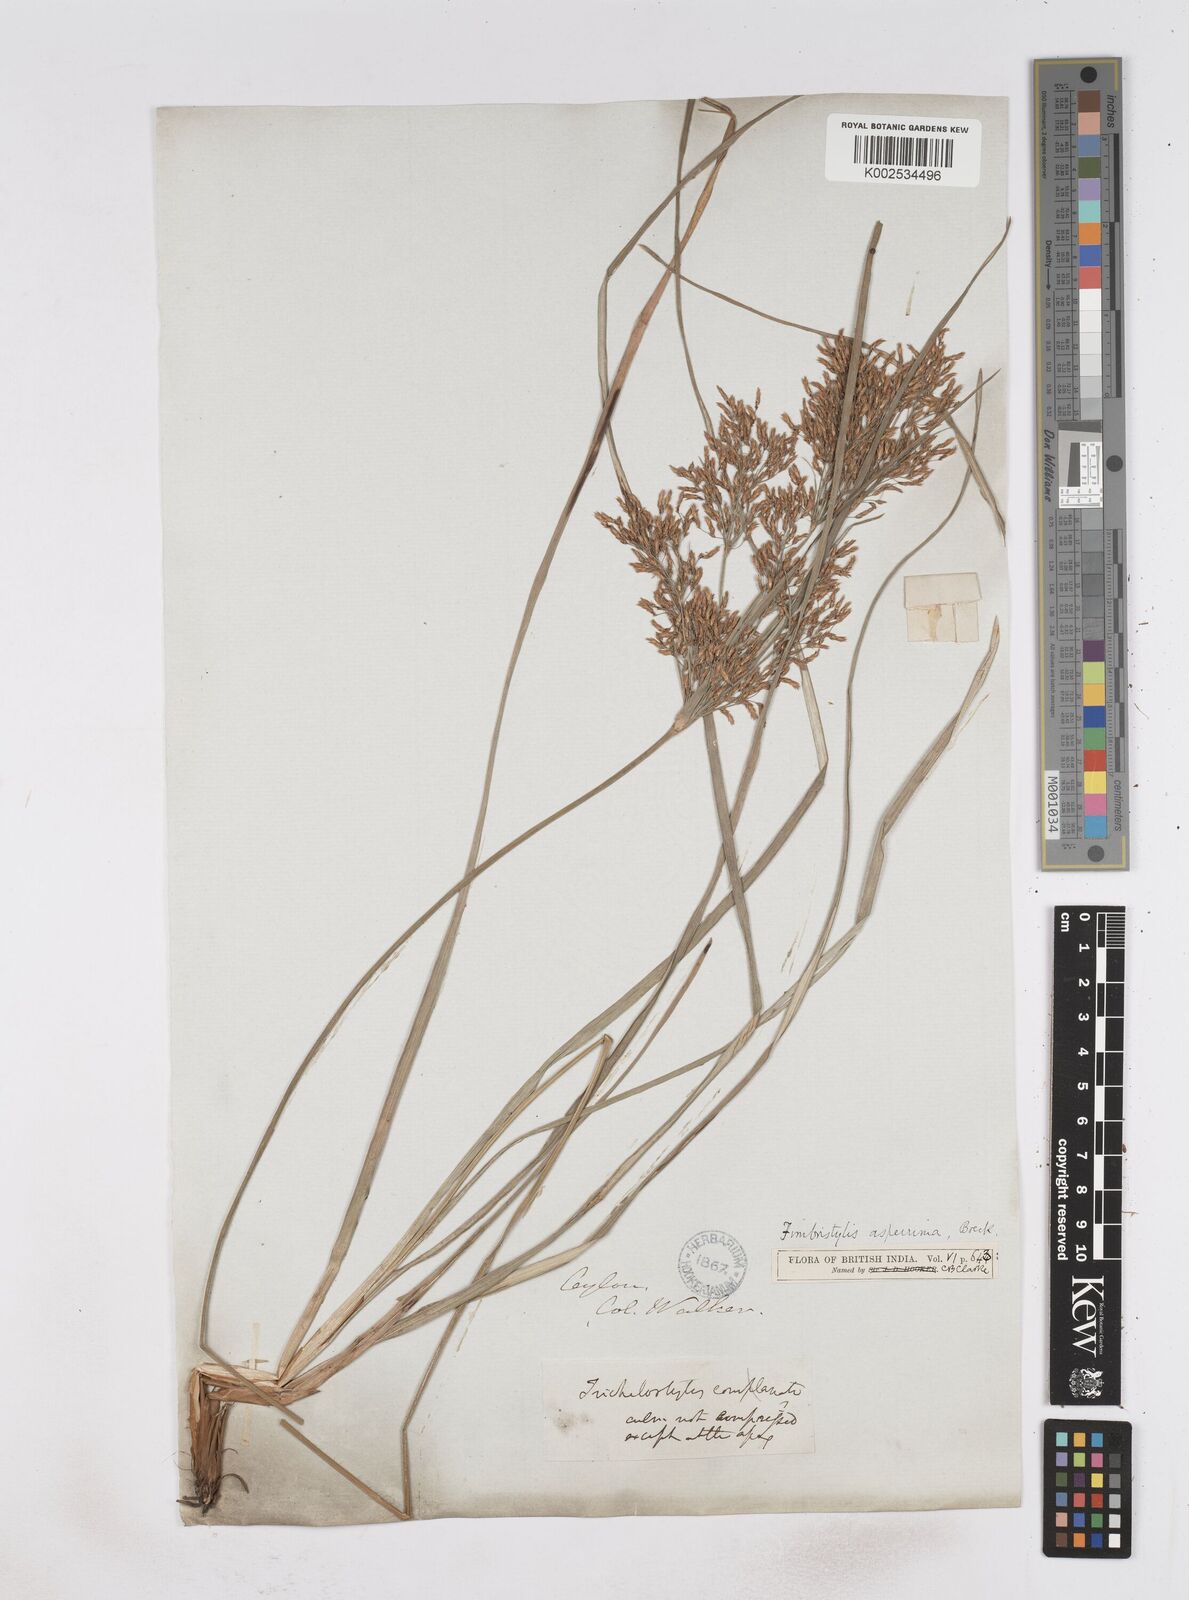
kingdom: Plantae
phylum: Tracheophyta
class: Liliopsida
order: Poales
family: Cyperaceae
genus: Fimbristylis
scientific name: Fimbristylis dura
